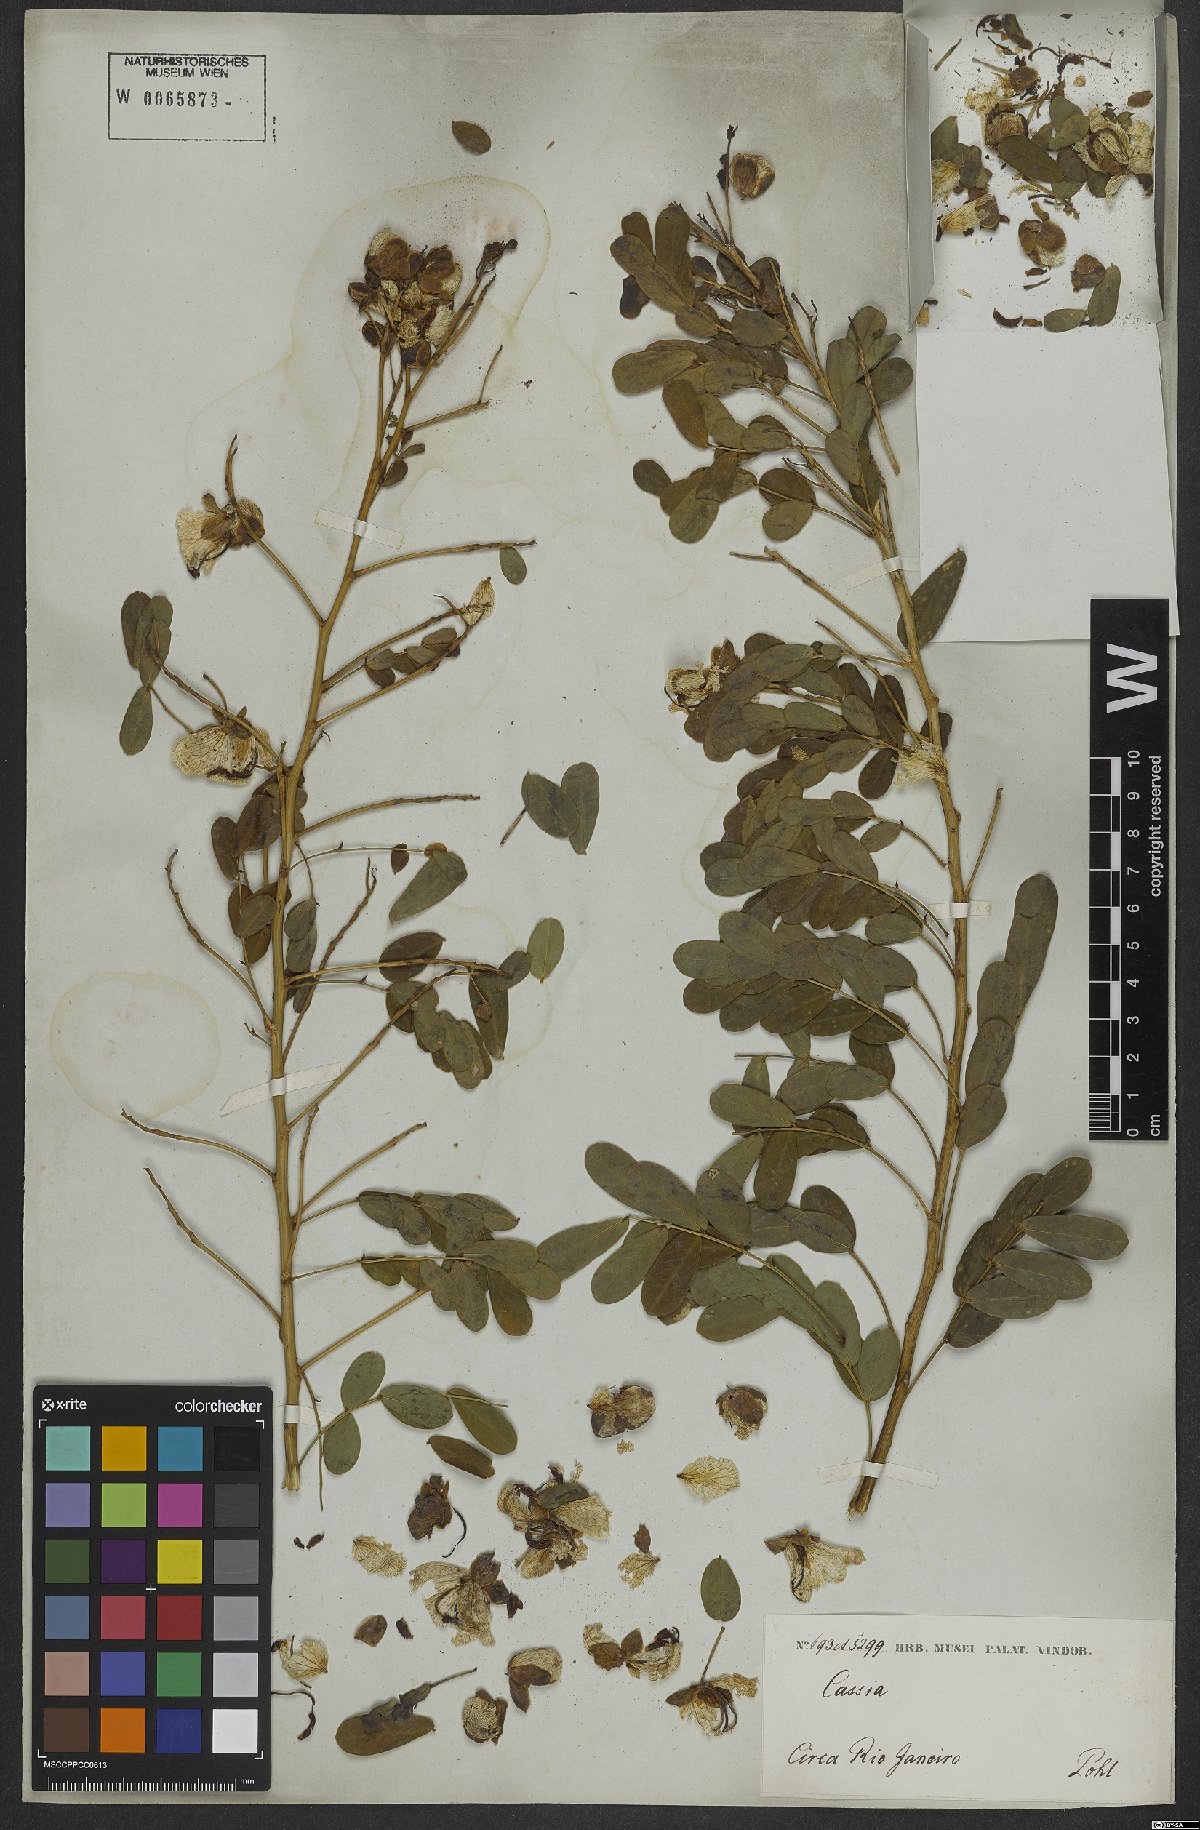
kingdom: Plantae
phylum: Tracheophyta
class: Magnoliopsida
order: Fabales
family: Fabaceae
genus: Senna
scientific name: Senna bicapsularis
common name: Christmasbush
